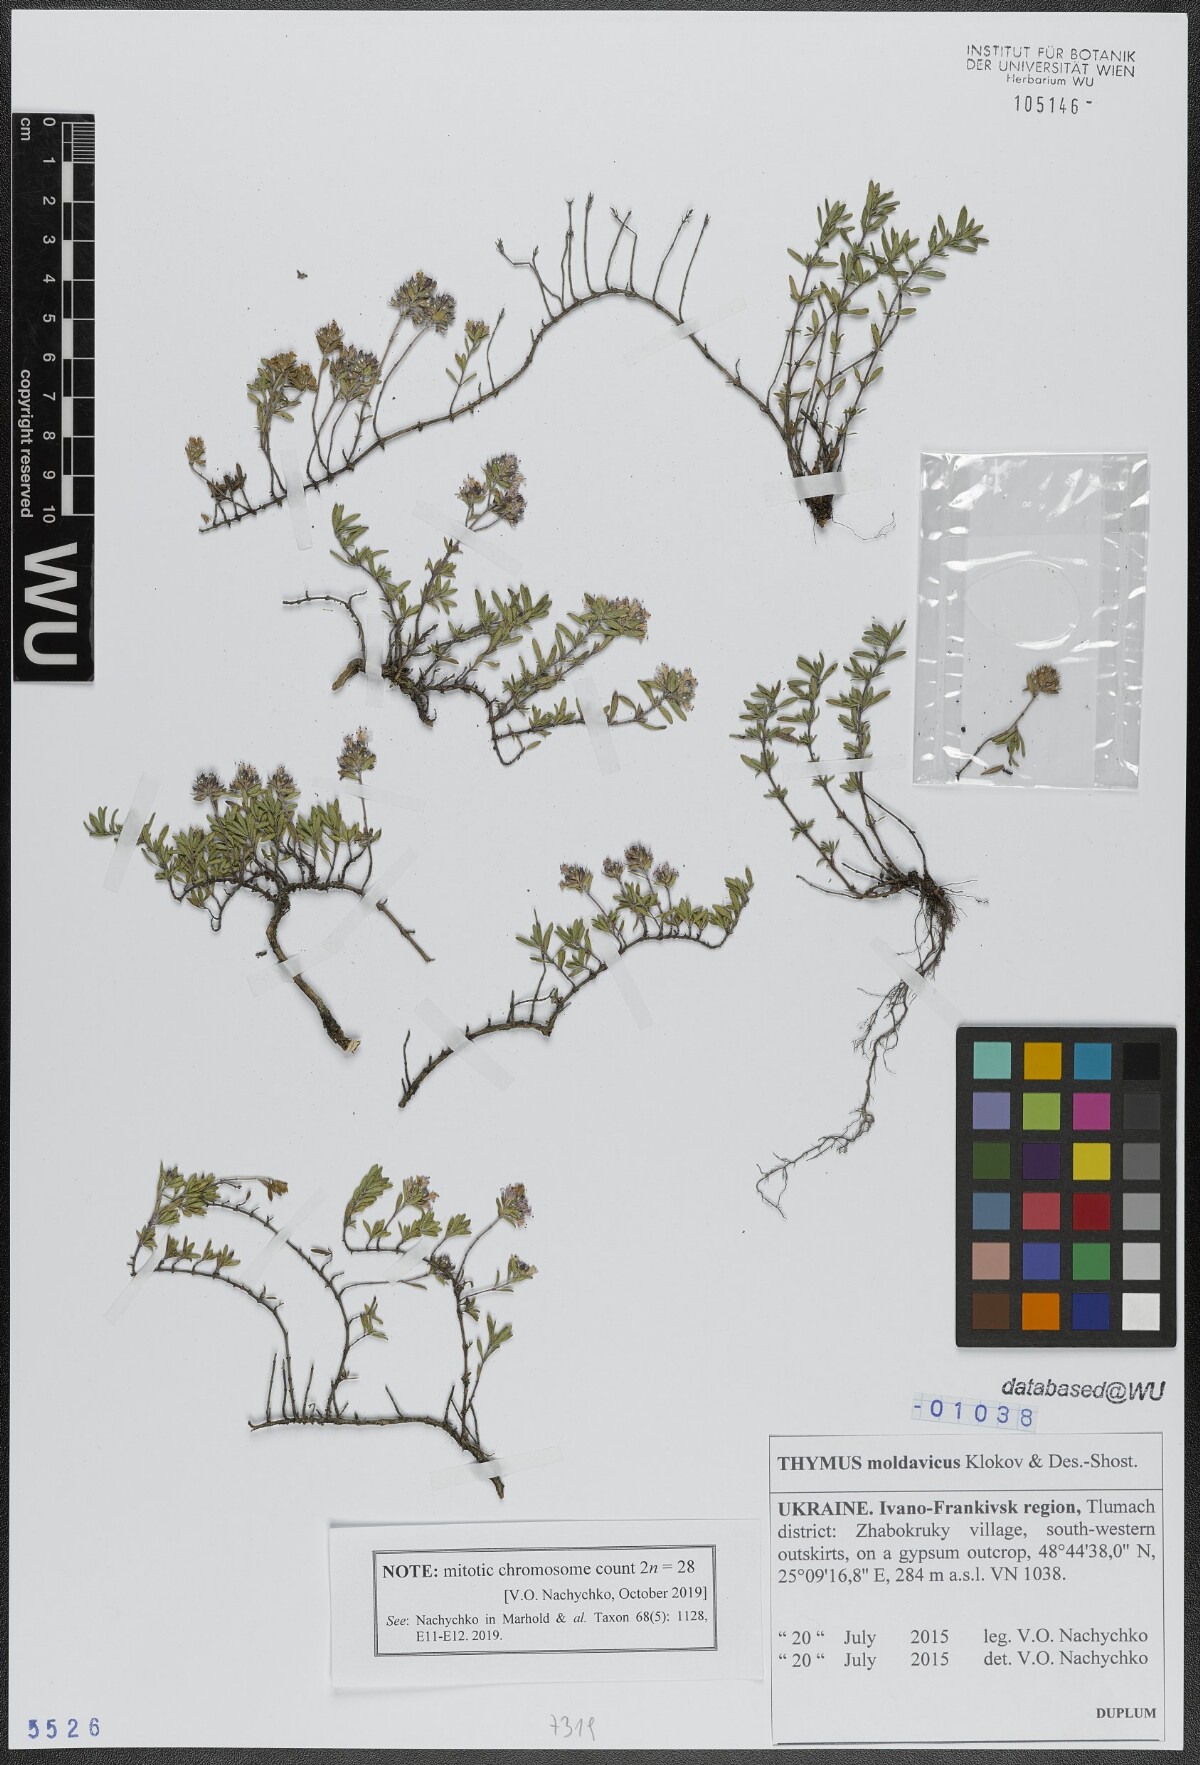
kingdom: Plantae
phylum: Tracheophyta
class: Magnoliopsida
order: Lamiales
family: Lamiaceae
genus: Thymus
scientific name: Thymus moldavicus
